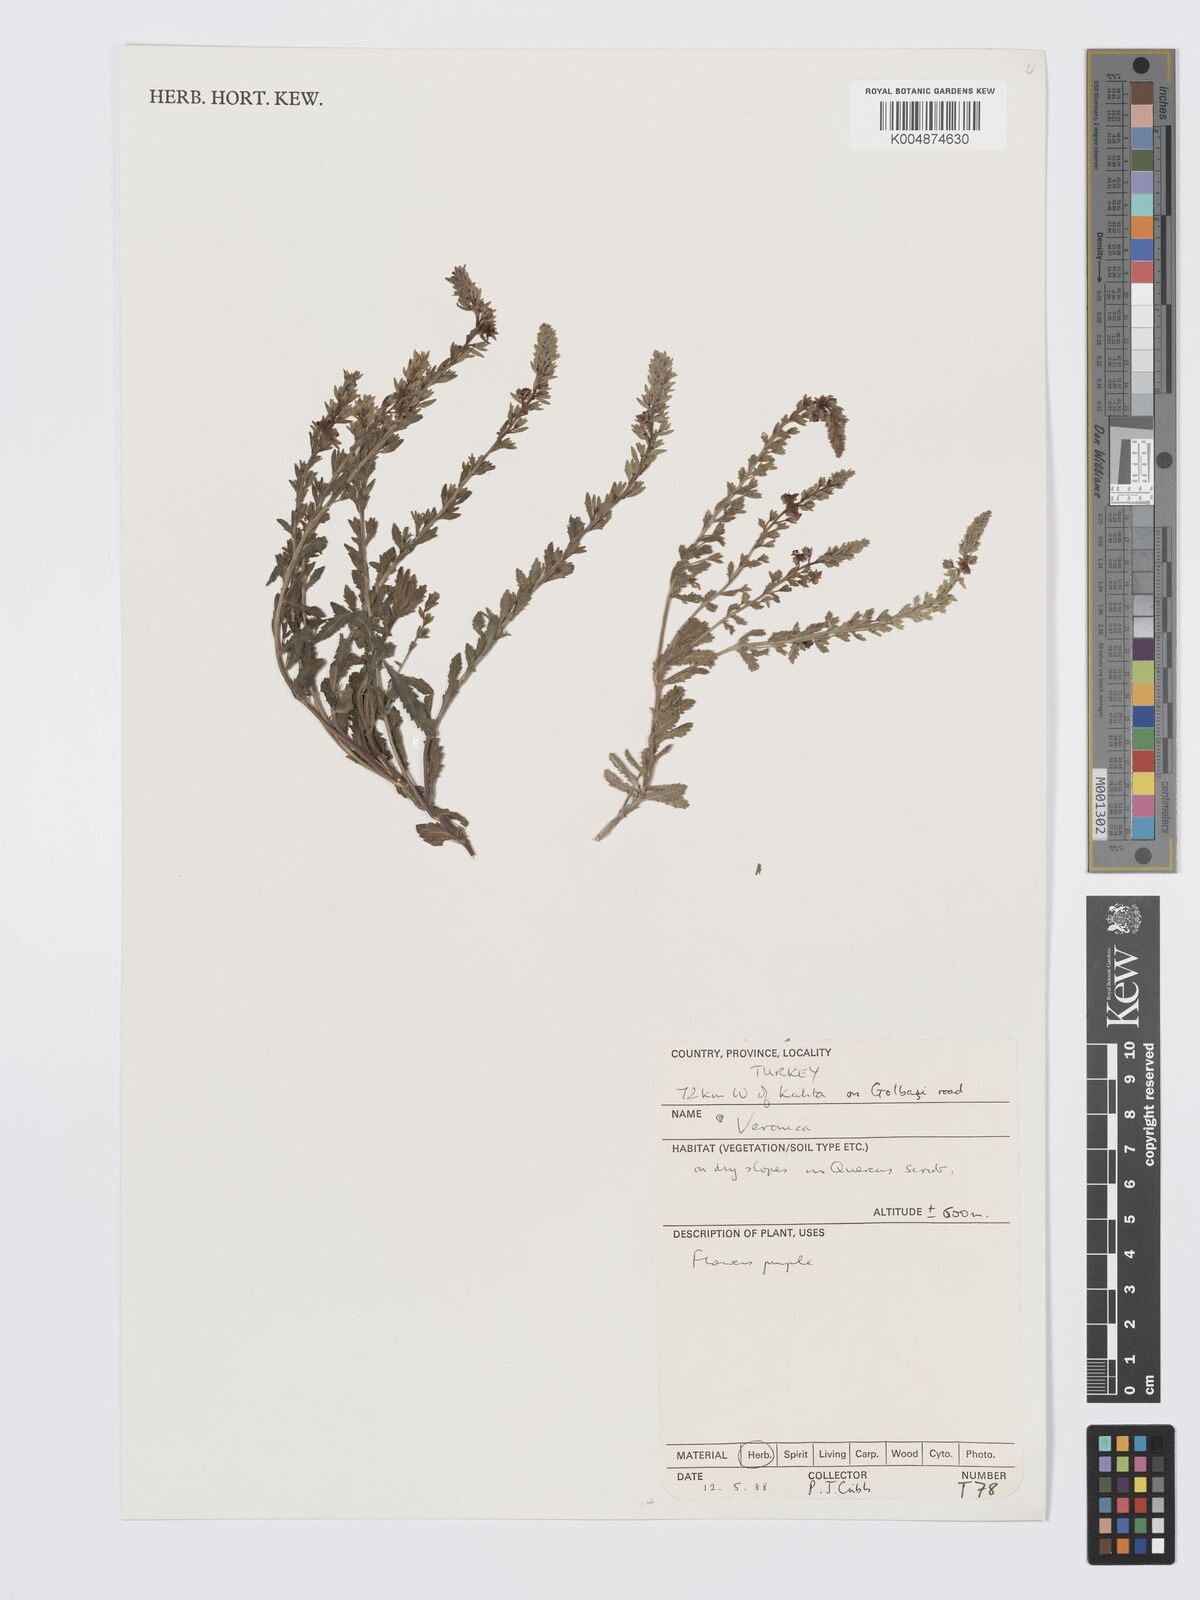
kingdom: Plantae
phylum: Tracheophyta
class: Magnoliopsida
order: Lamiales
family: Plantaginaceae
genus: Veronica
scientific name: Veronica
